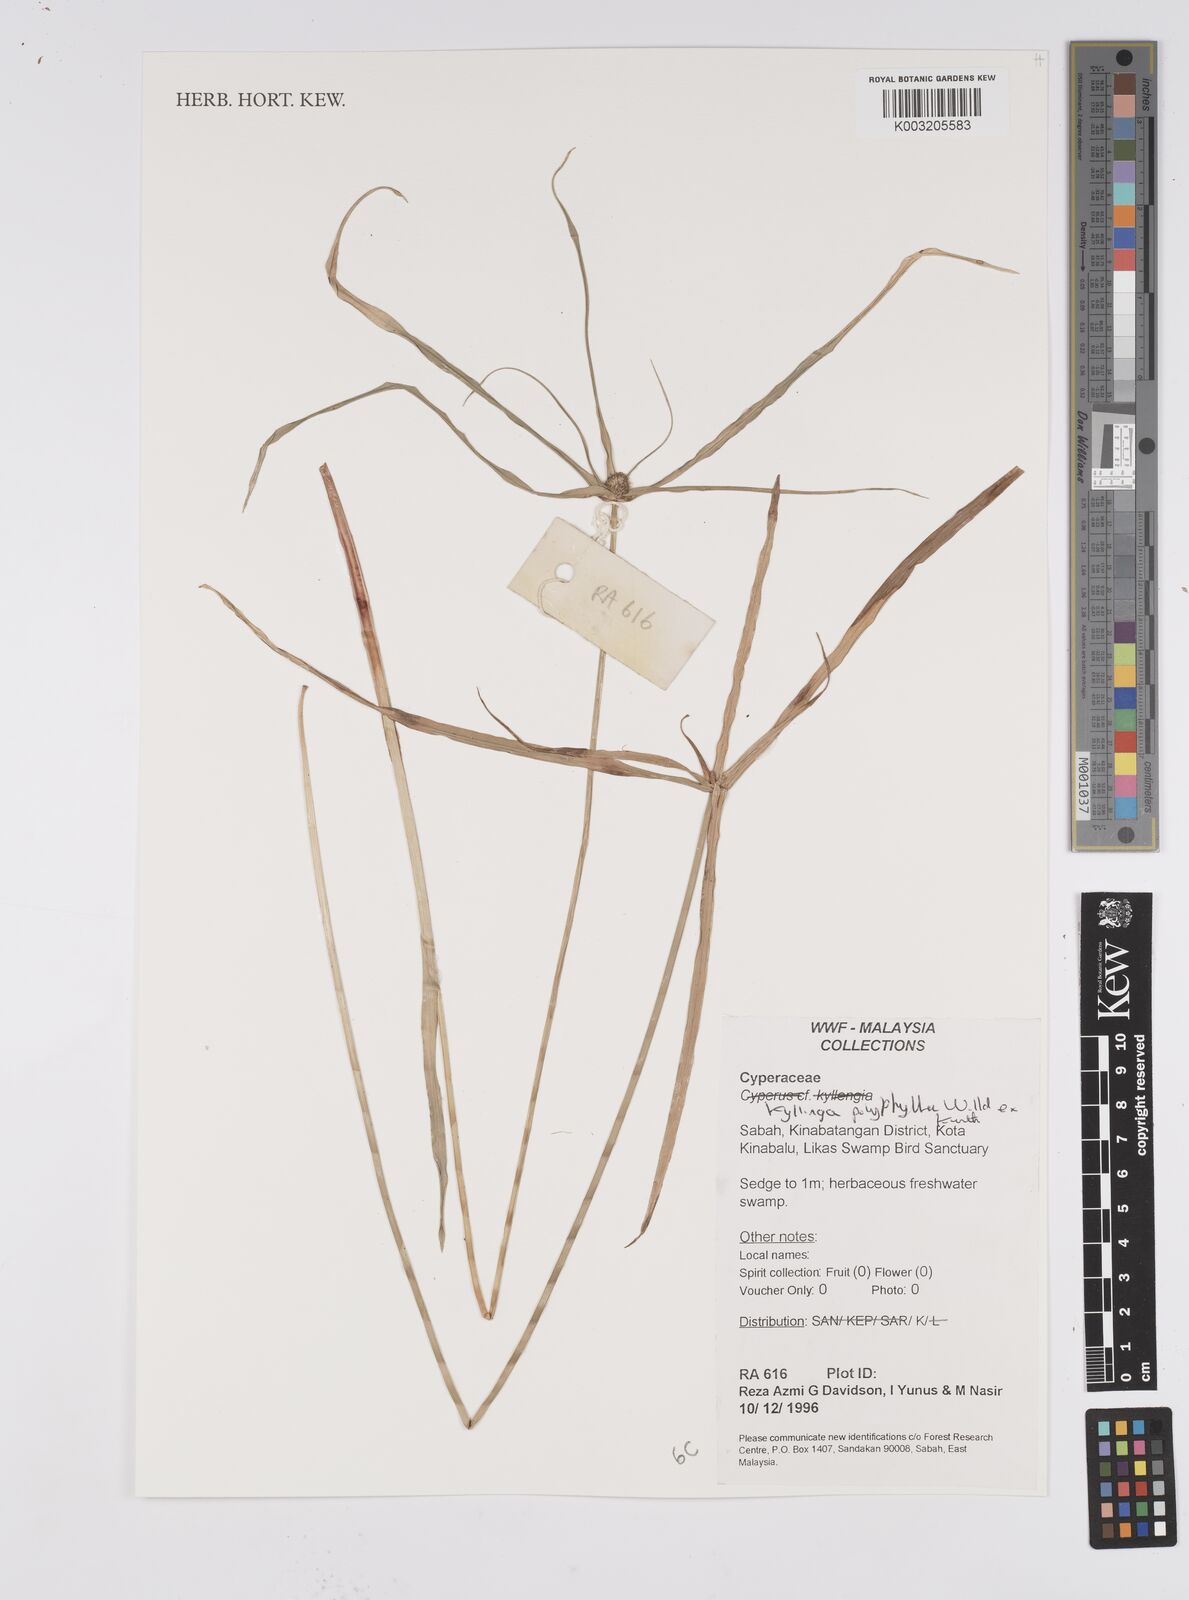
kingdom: Plantae
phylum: Tracheophyta
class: Liliopsida
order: Poales
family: Cyperaceae
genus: Cyperus
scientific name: Cyperus
